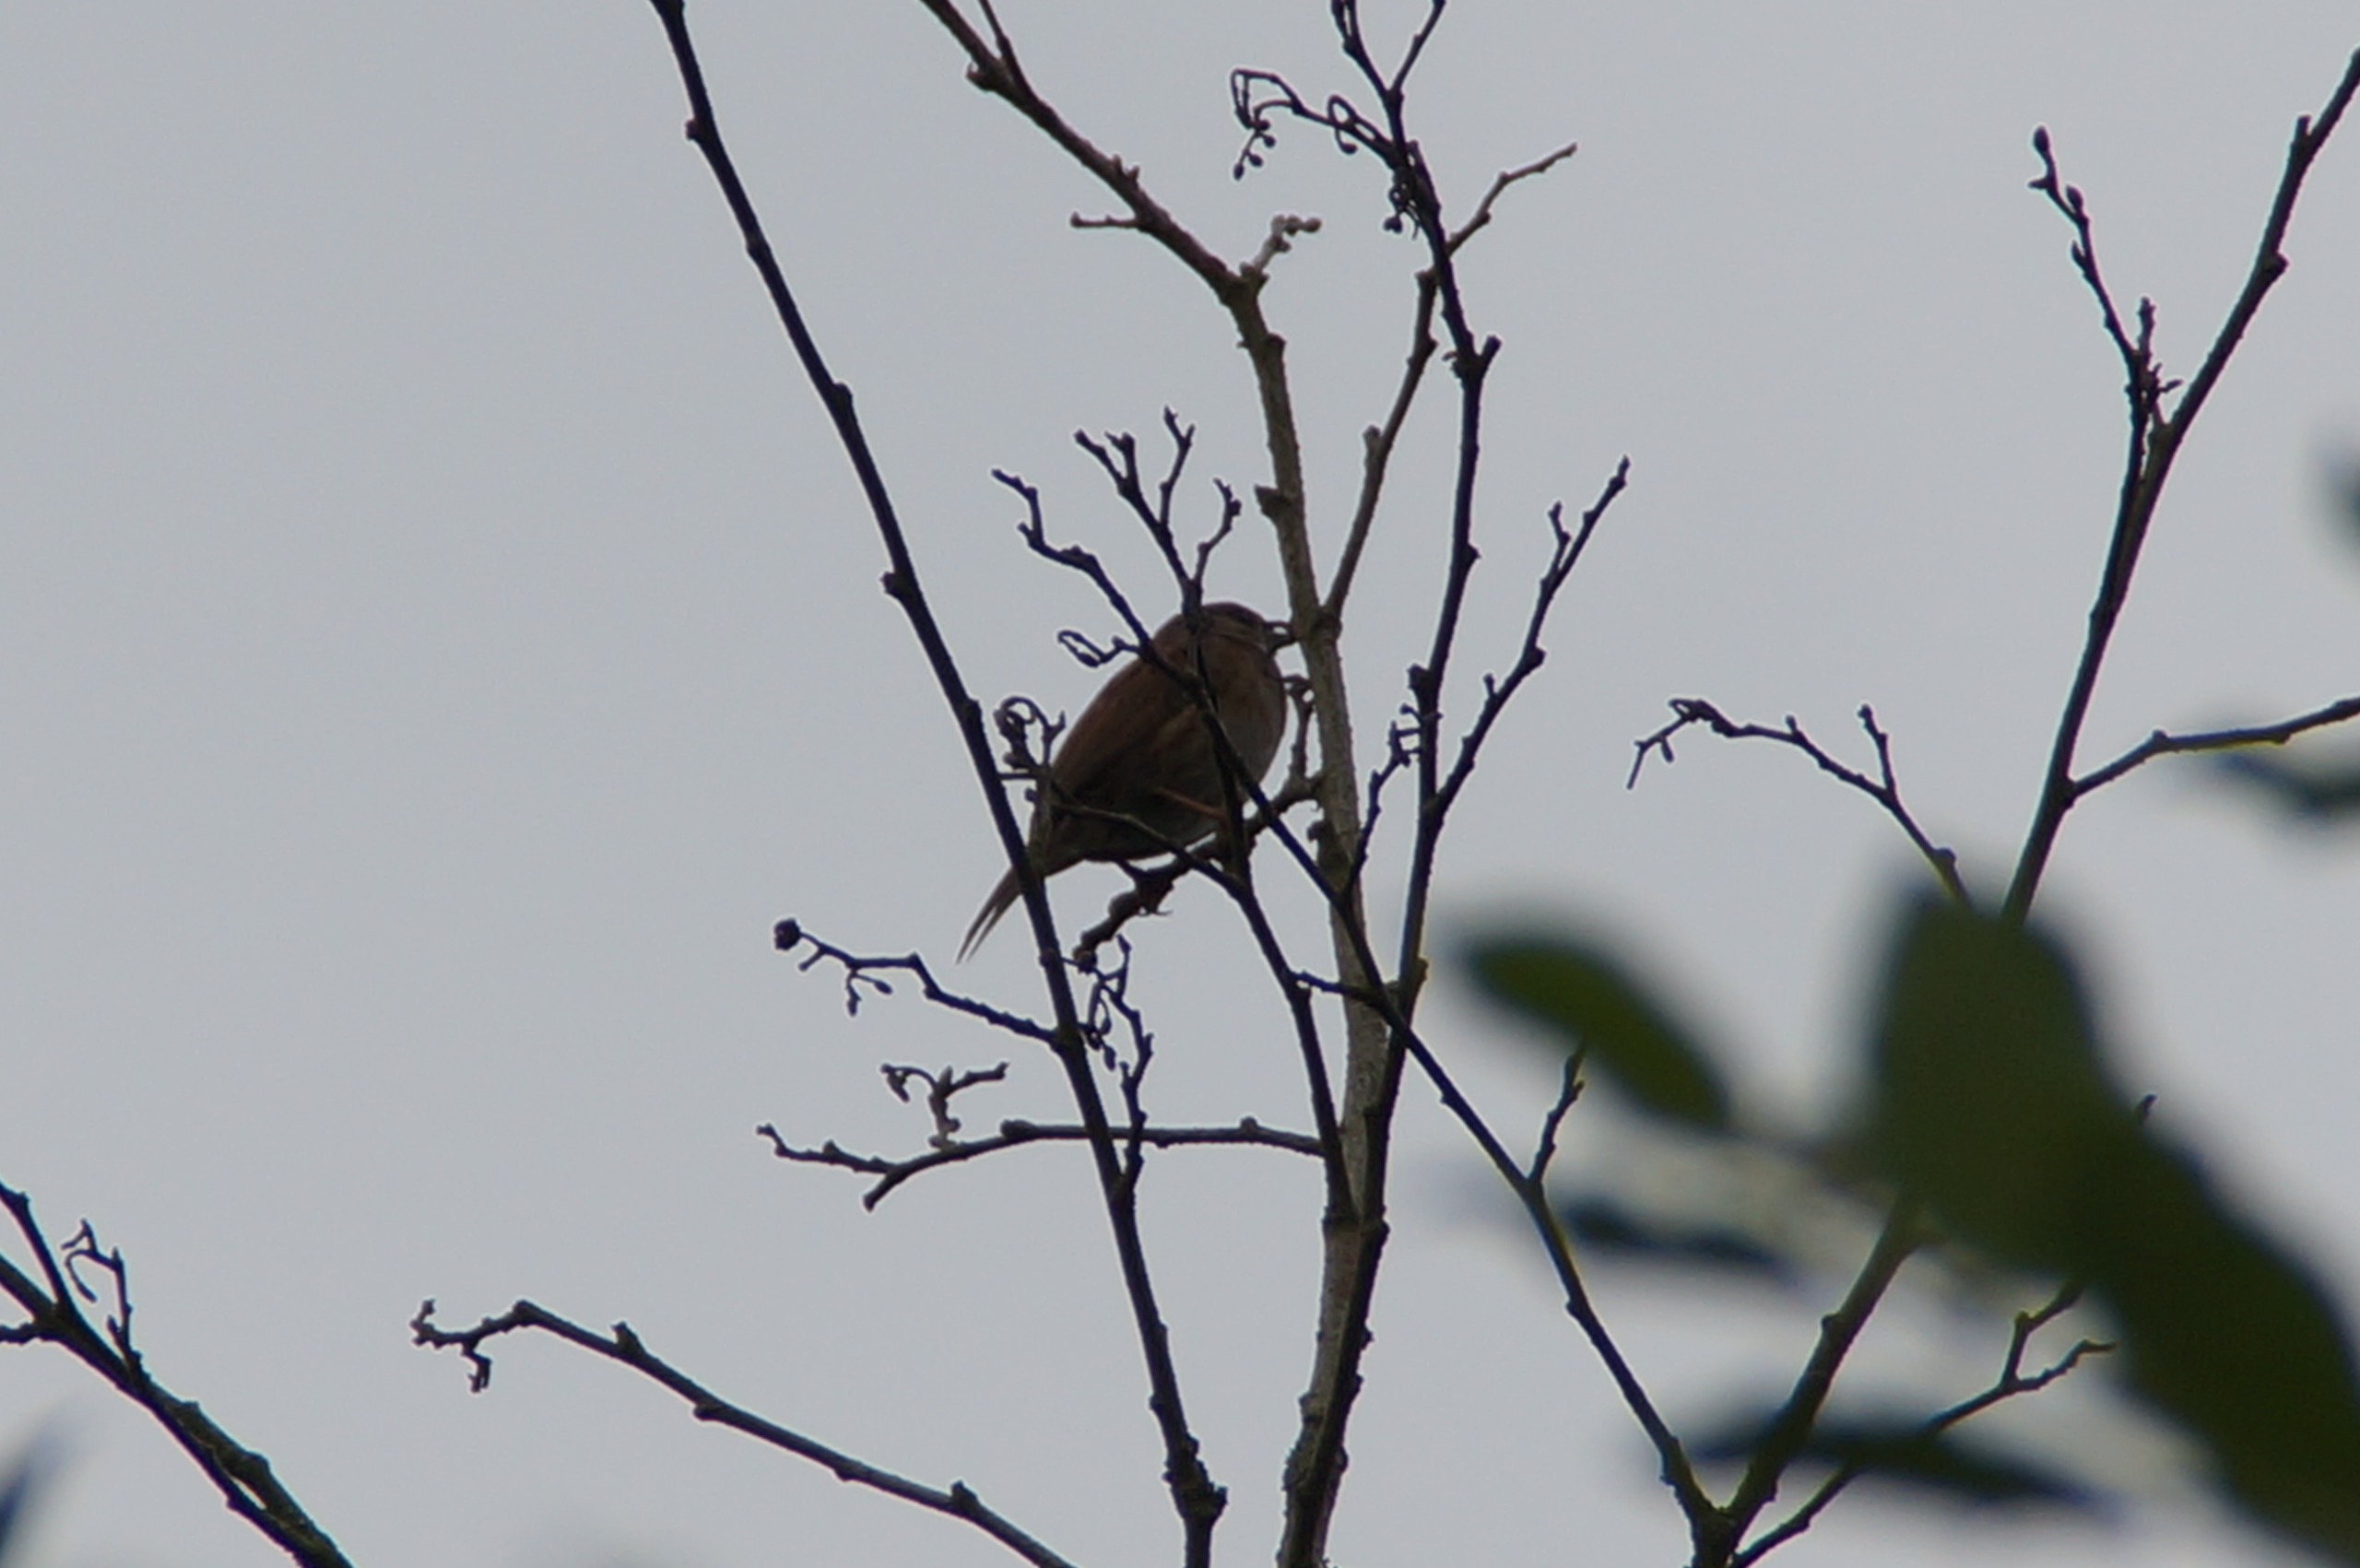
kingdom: Animalia
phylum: Chordata
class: Aves
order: Passeriformes
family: Prunellidae
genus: Prunella
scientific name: Prunella modularis
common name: Jernspurv
